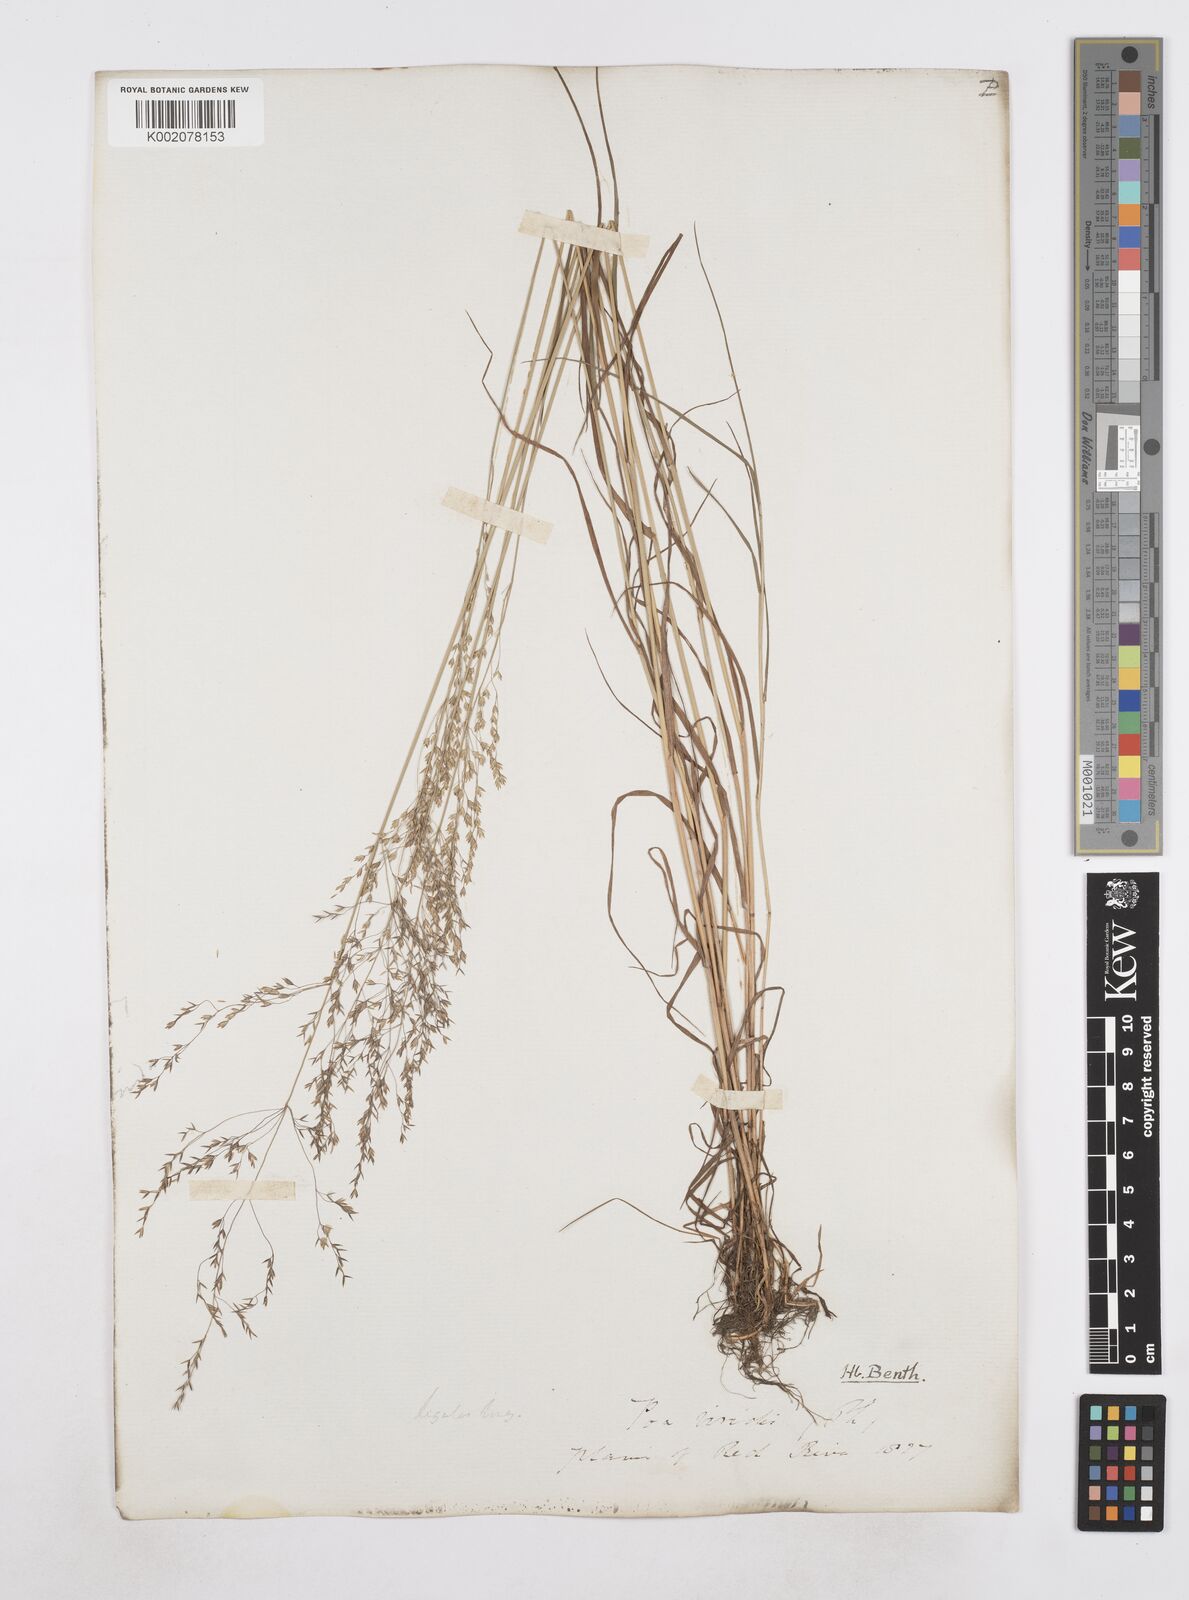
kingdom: Plantae
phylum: Tracheophyta
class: Liliopsida
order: Poales
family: Poaceae
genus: Poa
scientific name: Poa
